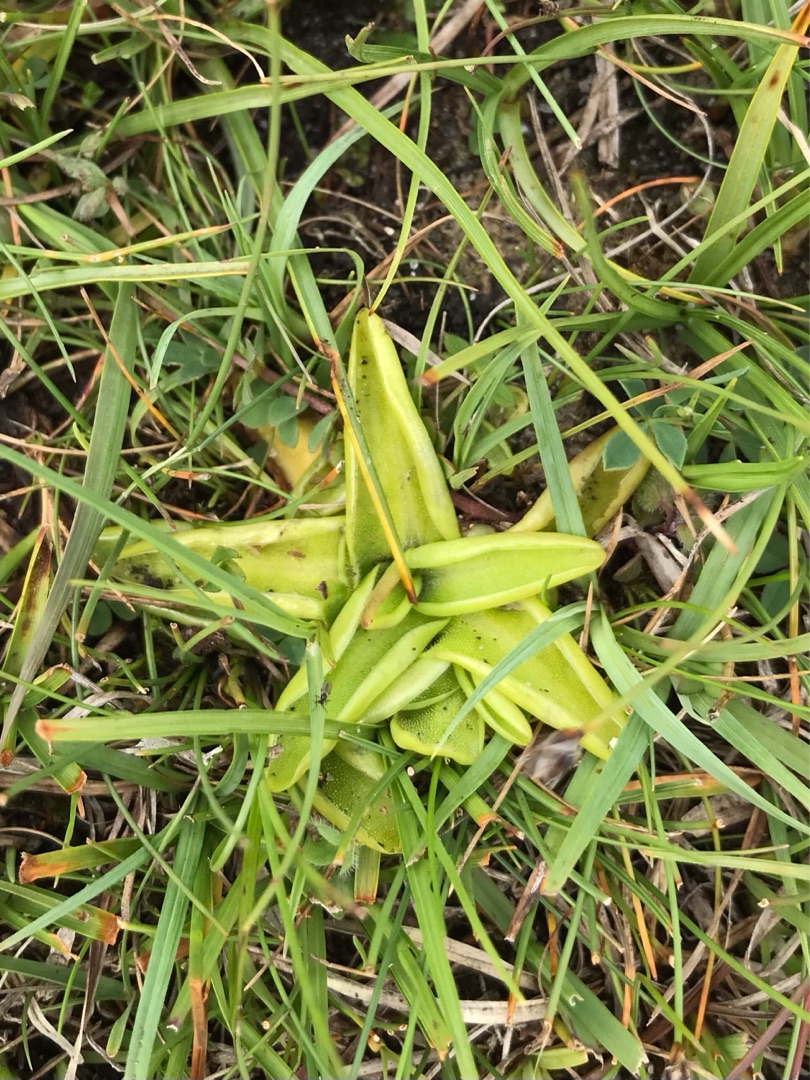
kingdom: Plantae
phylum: Tracheophyta
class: Magnoliopsida
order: Lamiales
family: Lentibulariaceae
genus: Pinguicula
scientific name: Pinguicula vulgaris
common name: Vibefedt
